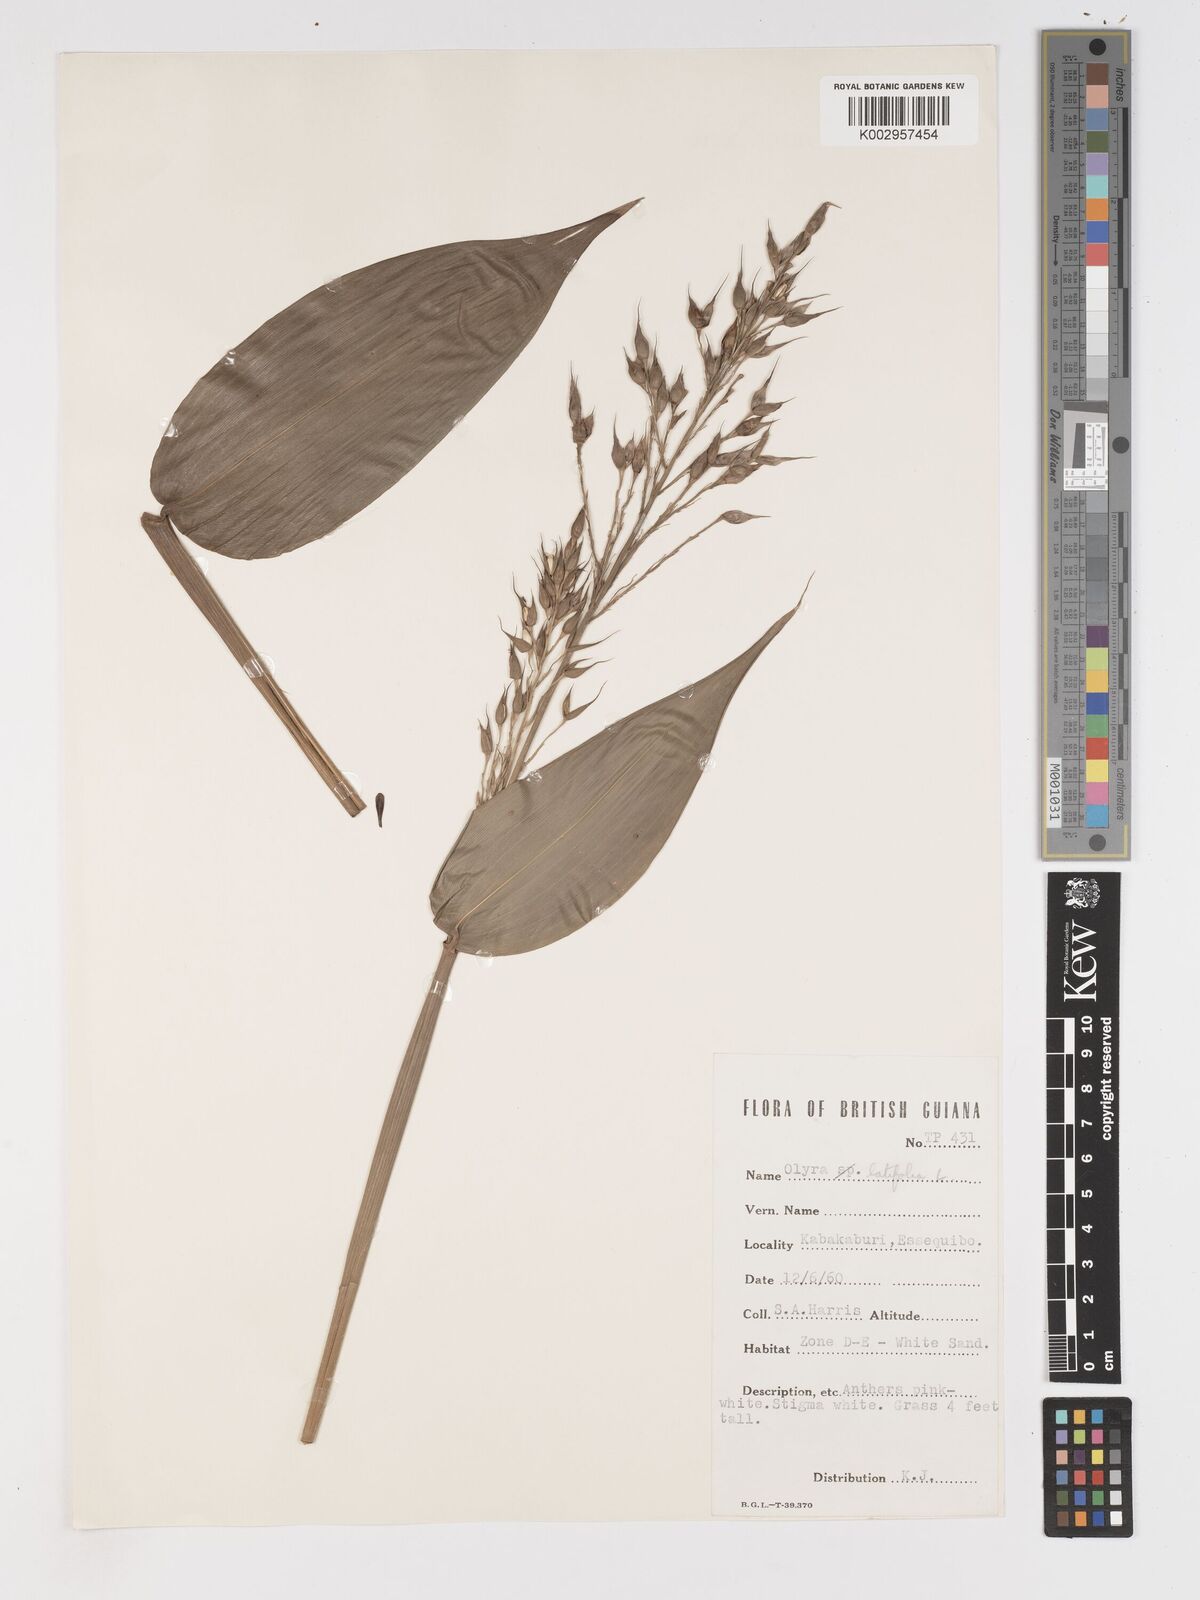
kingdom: Plantae
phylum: Tracheophyta
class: Liliopsida
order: Poales
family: Poaceae
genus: Olyra
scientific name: Olyra latifolia
